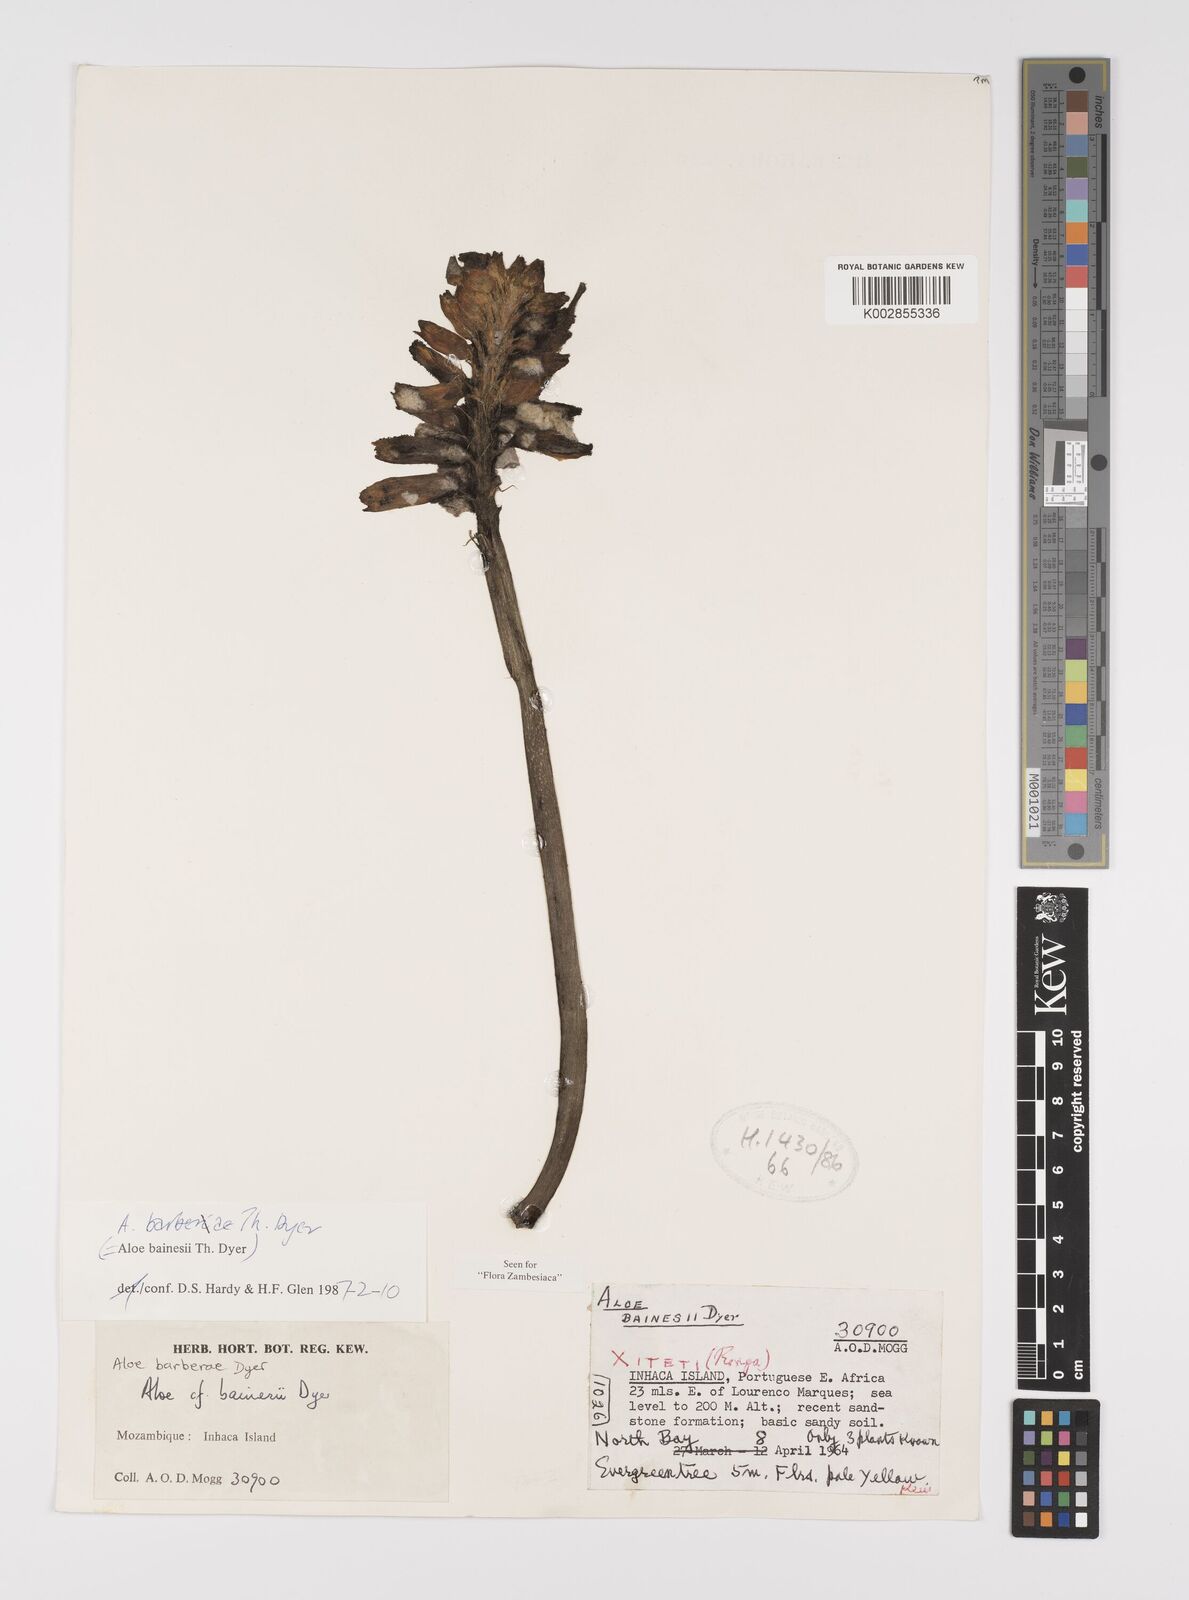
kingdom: Plantae
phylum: Tracheophyta
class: Liliopsida
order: Asparagales
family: Asphodelaceae
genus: Aloidendron
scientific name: Aloidendron barberae
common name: Tree aloe
